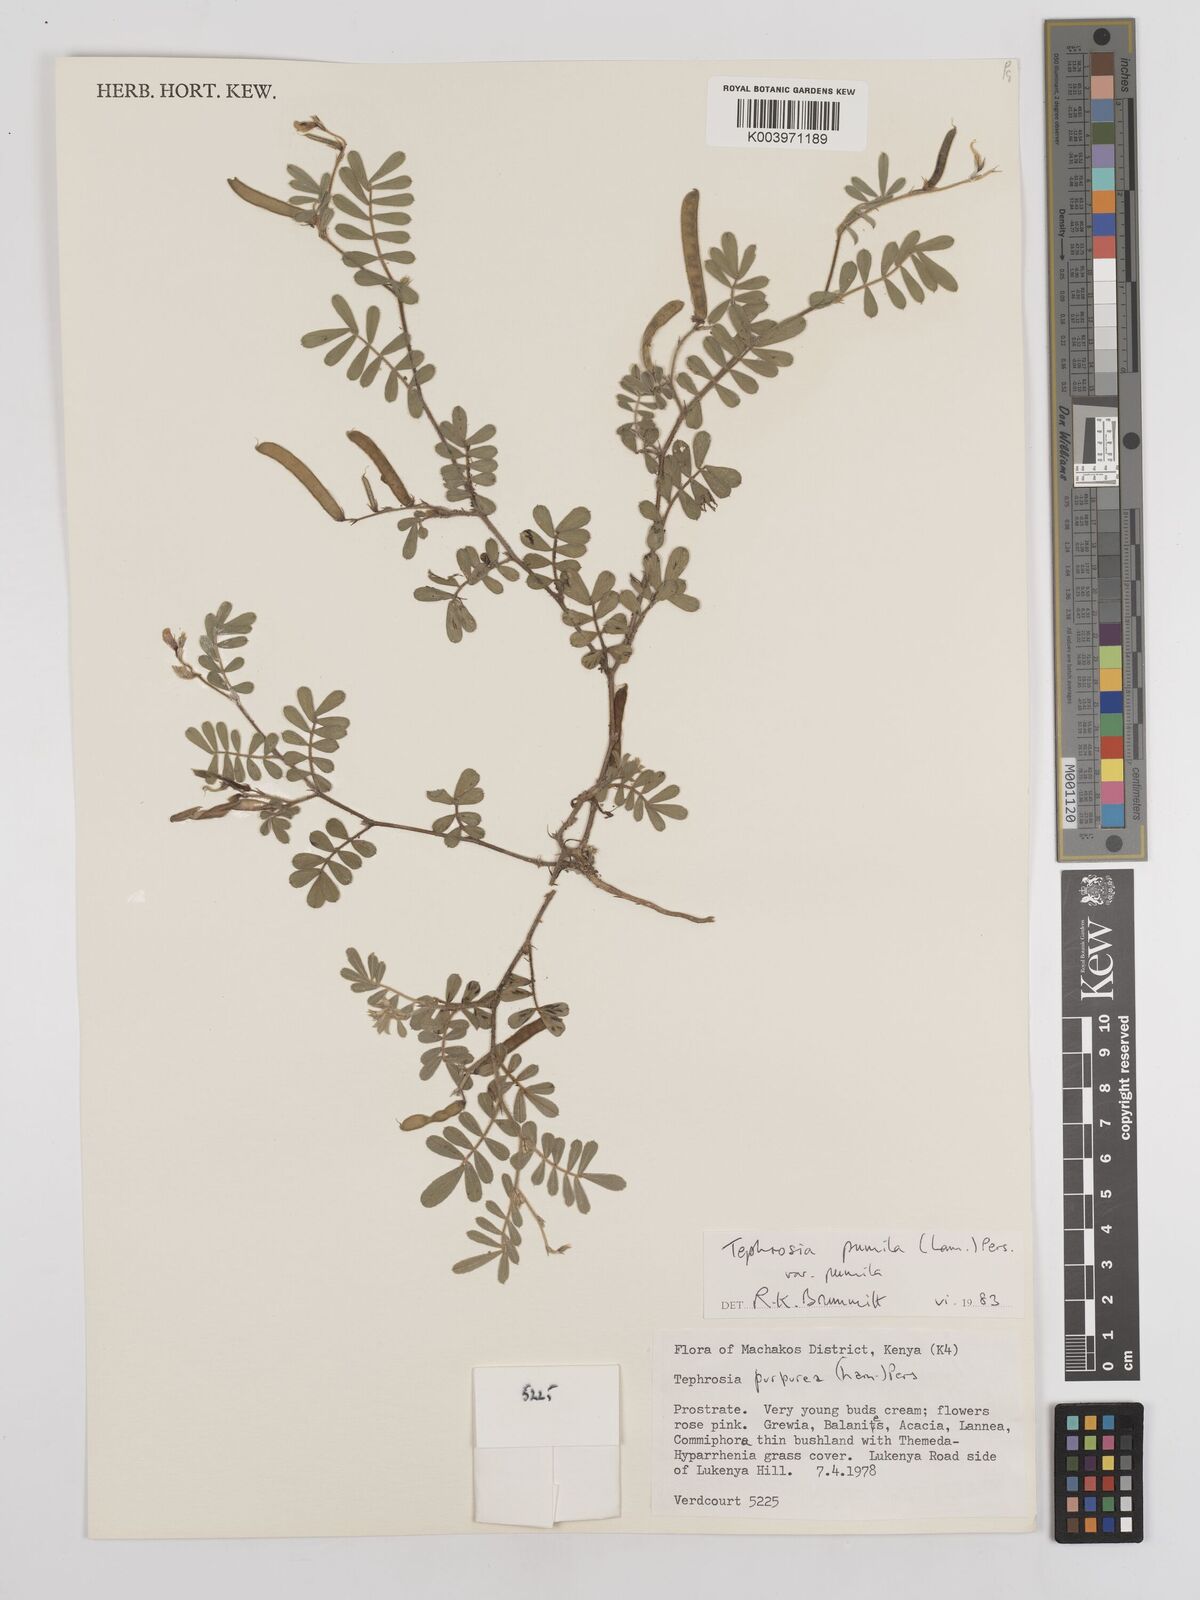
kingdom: Plantae
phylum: Tracheophyta
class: Magnoliopsida
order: Fabales
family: Fabaceae
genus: Tephrosia
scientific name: Tephrosia pumila
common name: Indigo sauvage
